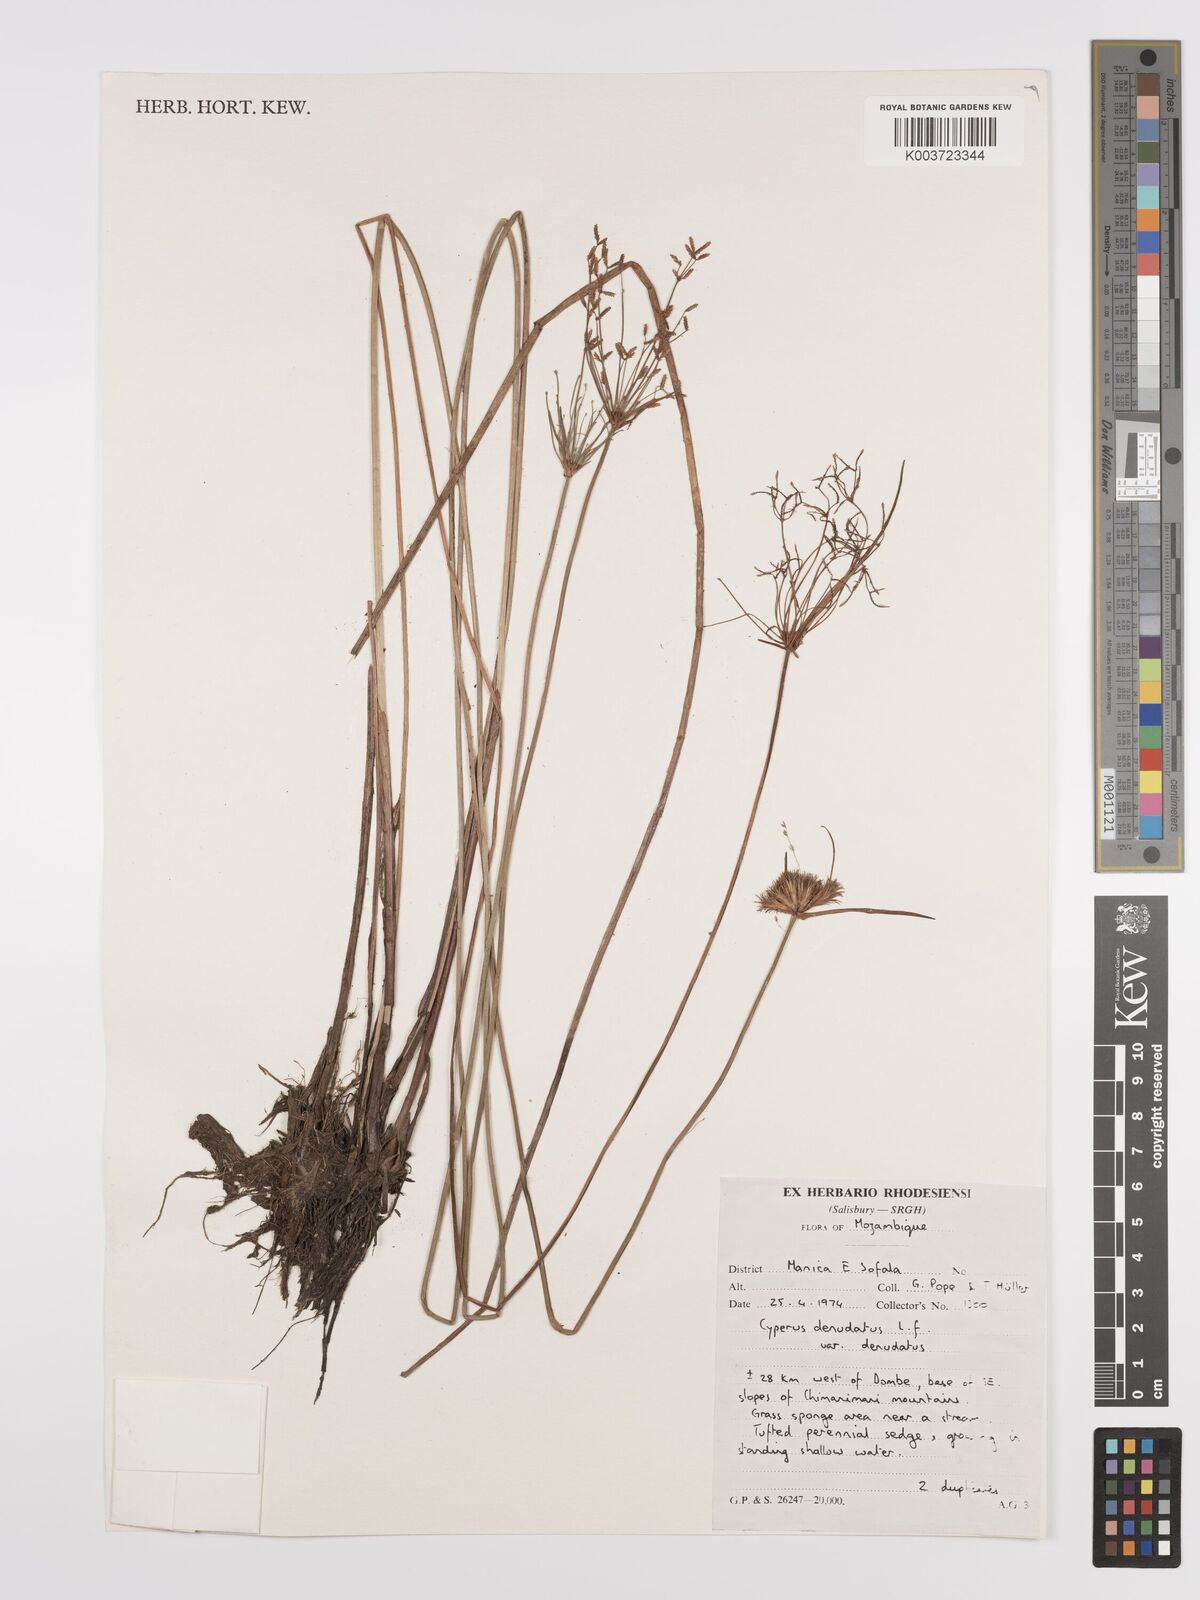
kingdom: Plantae
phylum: Tracheophyta
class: Liliopsida
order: Poales
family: Cyperaceae
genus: Cyperus
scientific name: Cyperus denudatus
